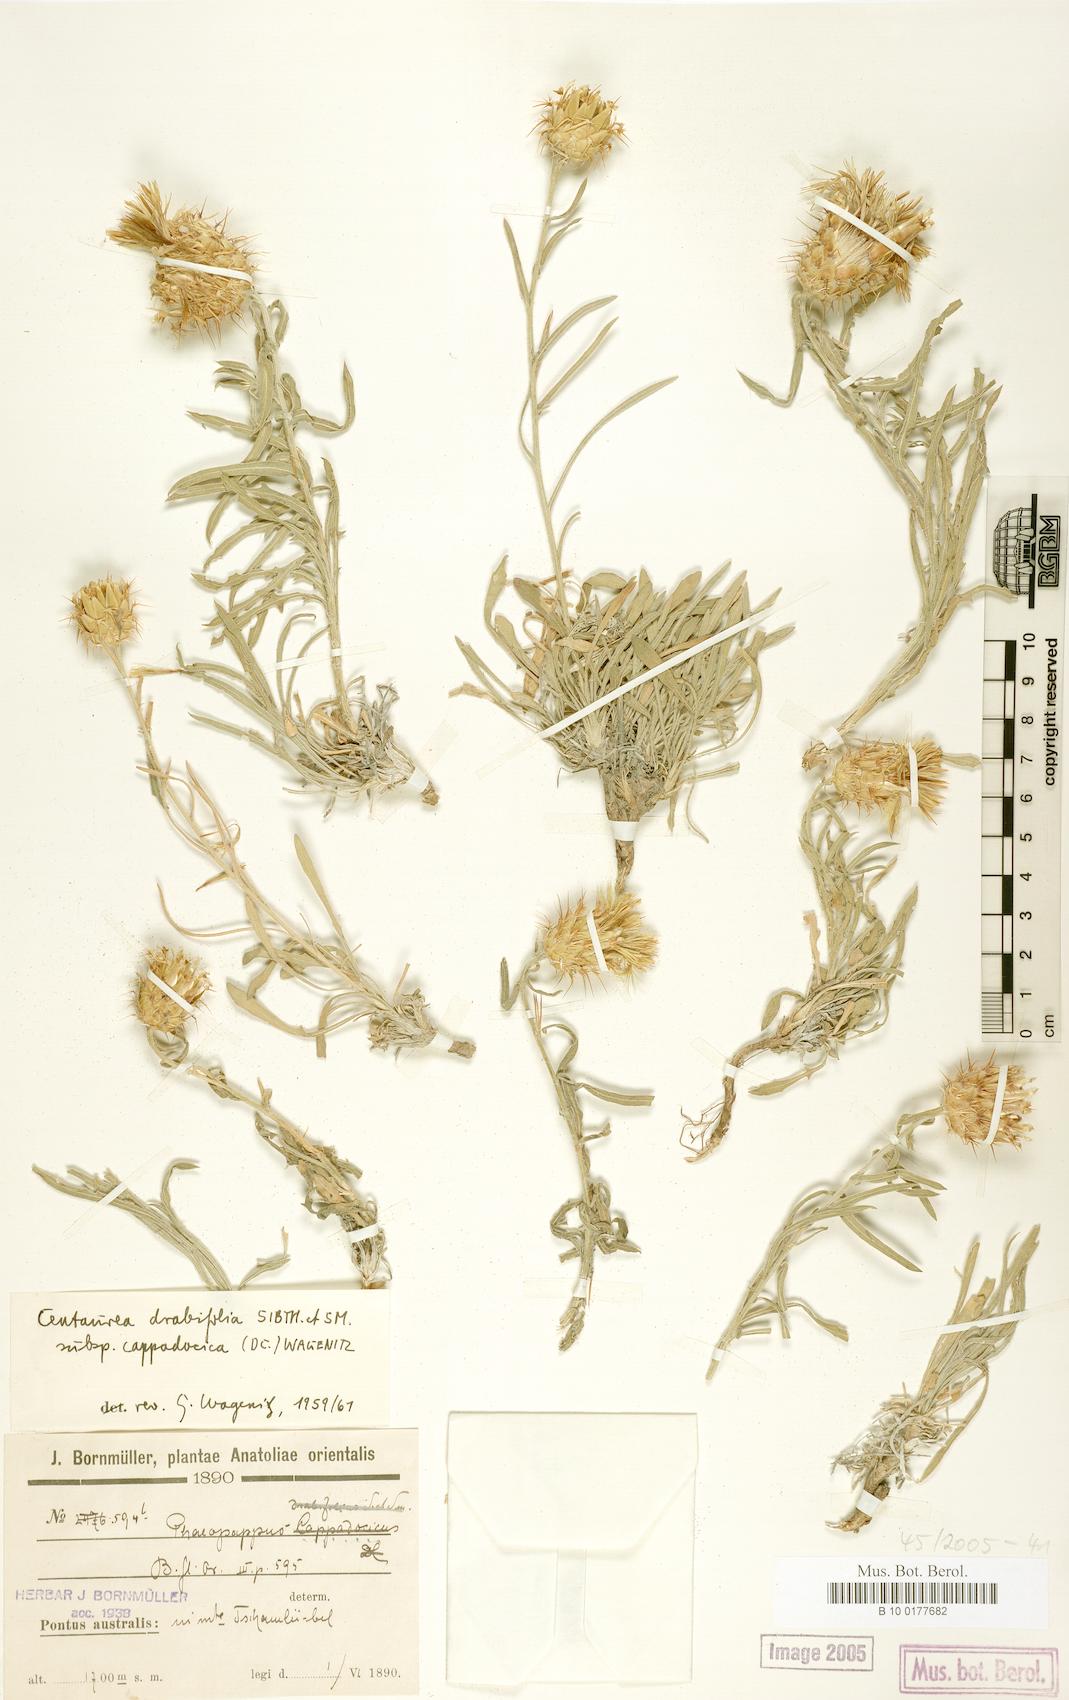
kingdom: Plantae
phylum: Tracheophyta
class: Magnoliopsida
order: Asterales
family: Asteraceae
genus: Centaurea
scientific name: Centaurea drabifolia
